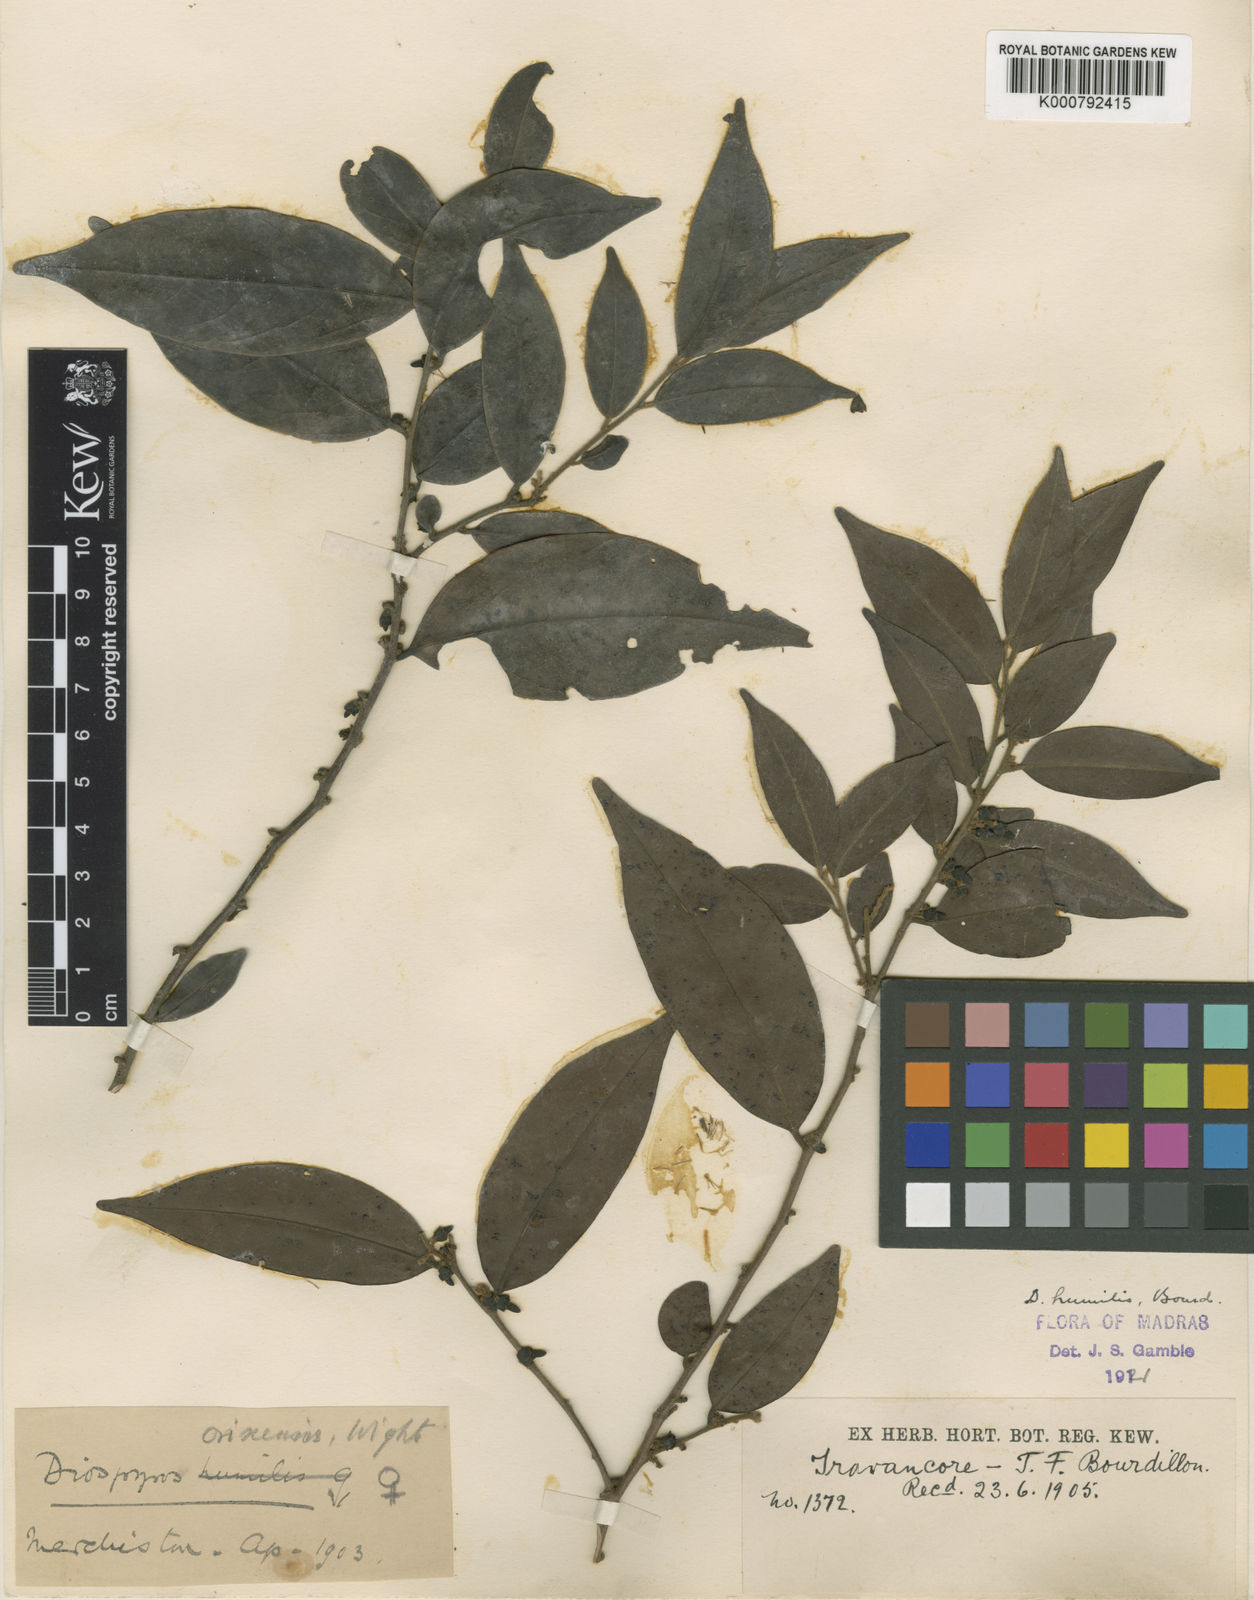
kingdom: Plantae
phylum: Tracheophyta
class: Magnoliopsida
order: Ericales
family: Ebenaceae
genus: Diospyros
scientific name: Diospyros montana
